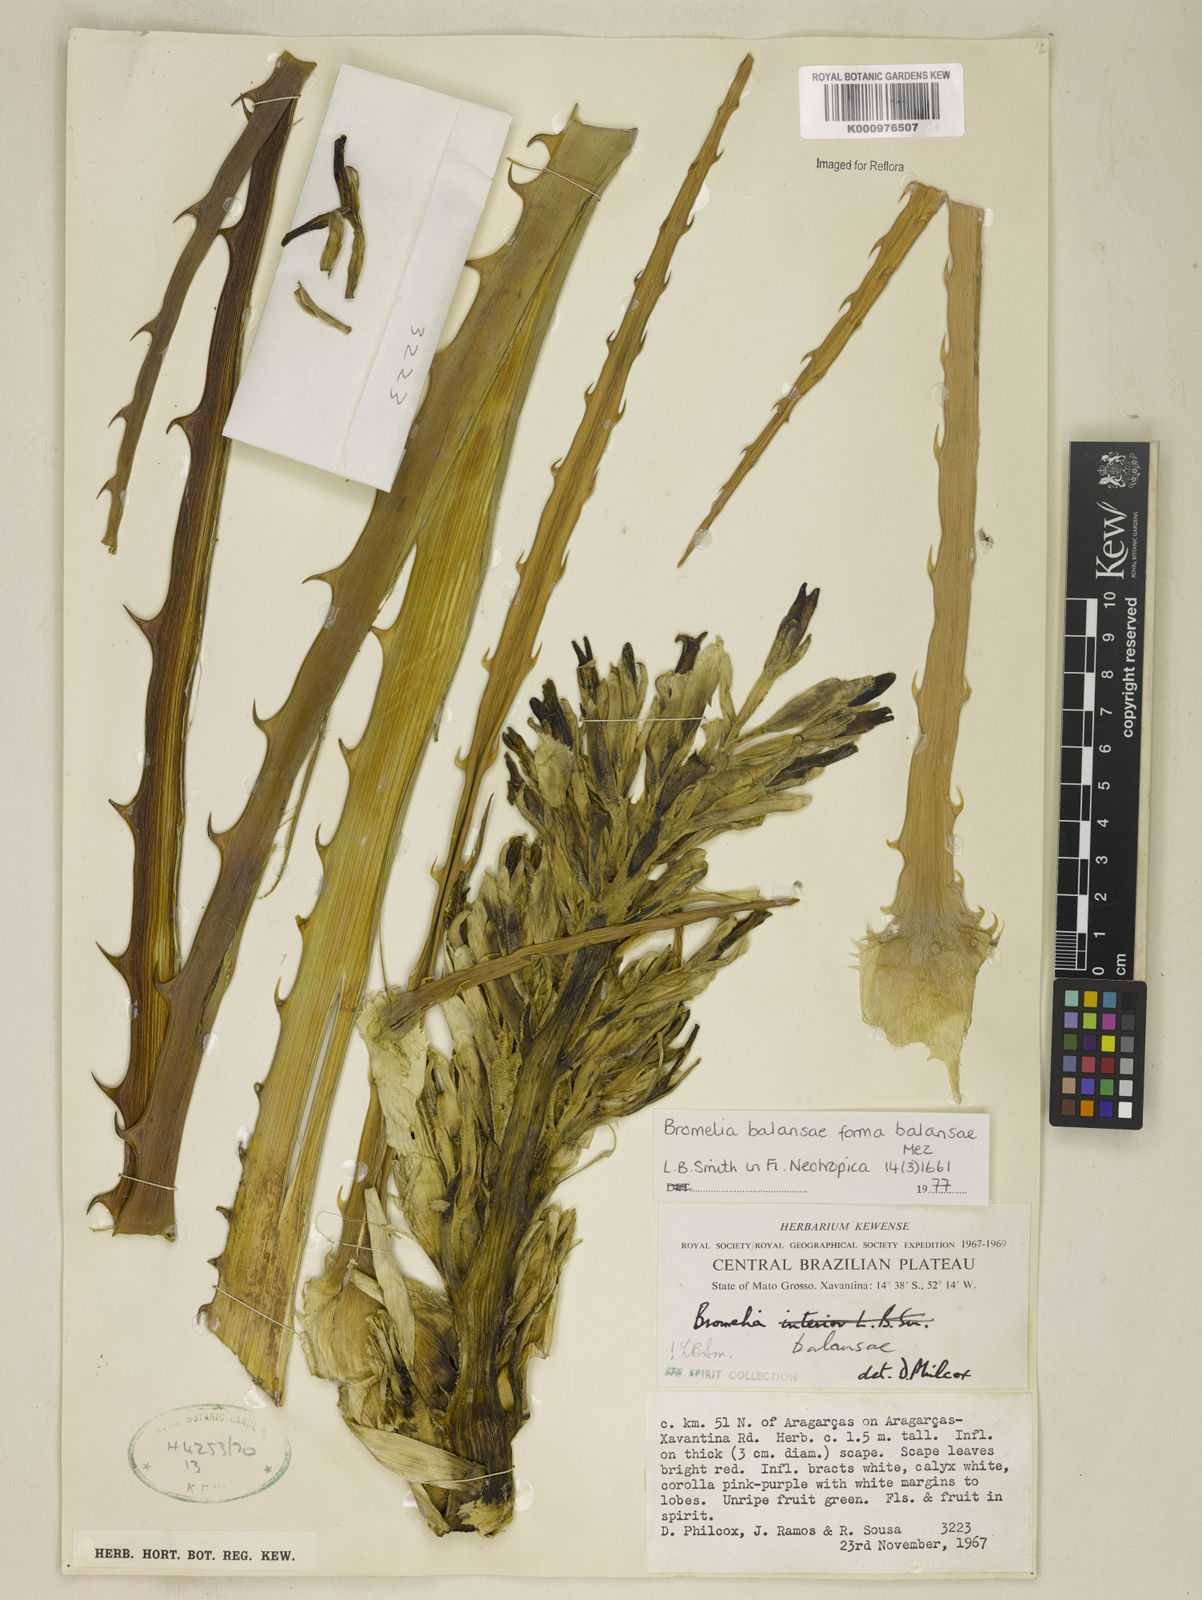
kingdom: Plantae
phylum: Tracheophyta
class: Liliopsida
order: Poales
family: Bromeliaceae
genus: Bromelia
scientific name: Bromelia balansae
